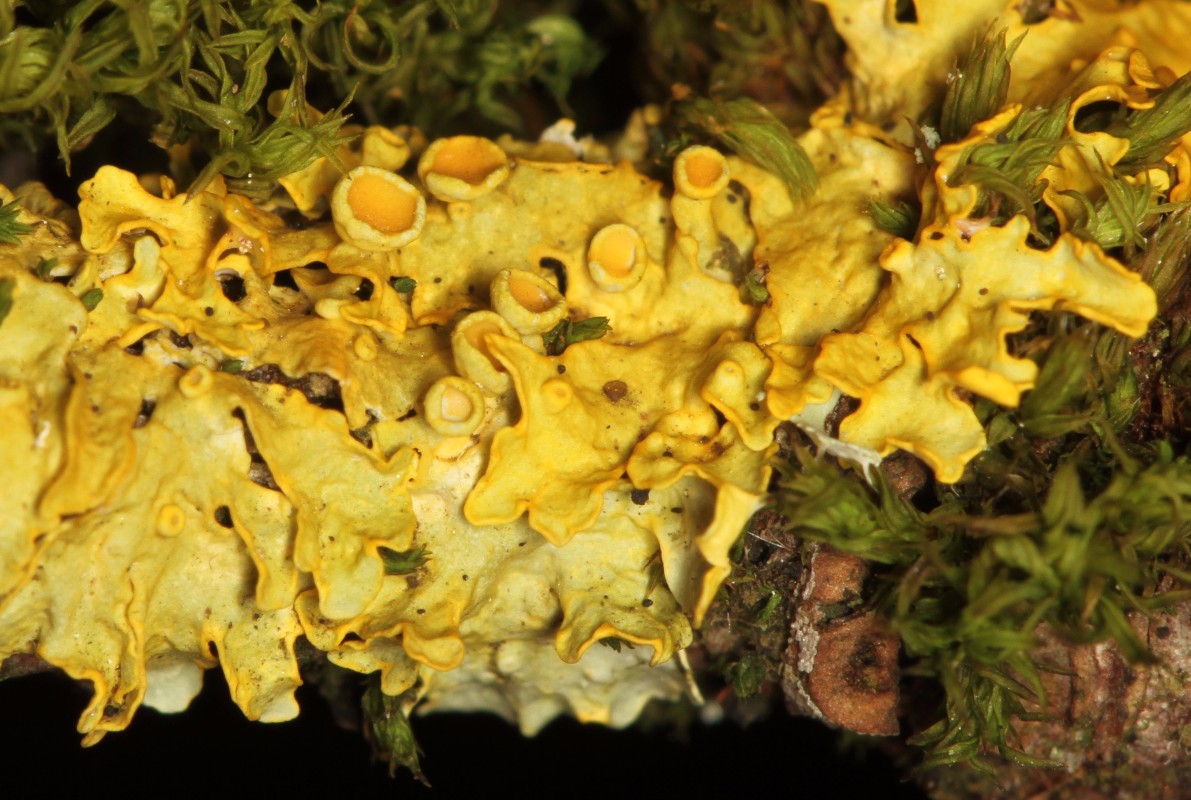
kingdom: Fungi
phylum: Ascomycota
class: Lecanoromycetes
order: Teloschistales
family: Teloschistaceae
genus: Xanthoria
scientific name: Xanthoria parietina
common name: almindelig væggelav
